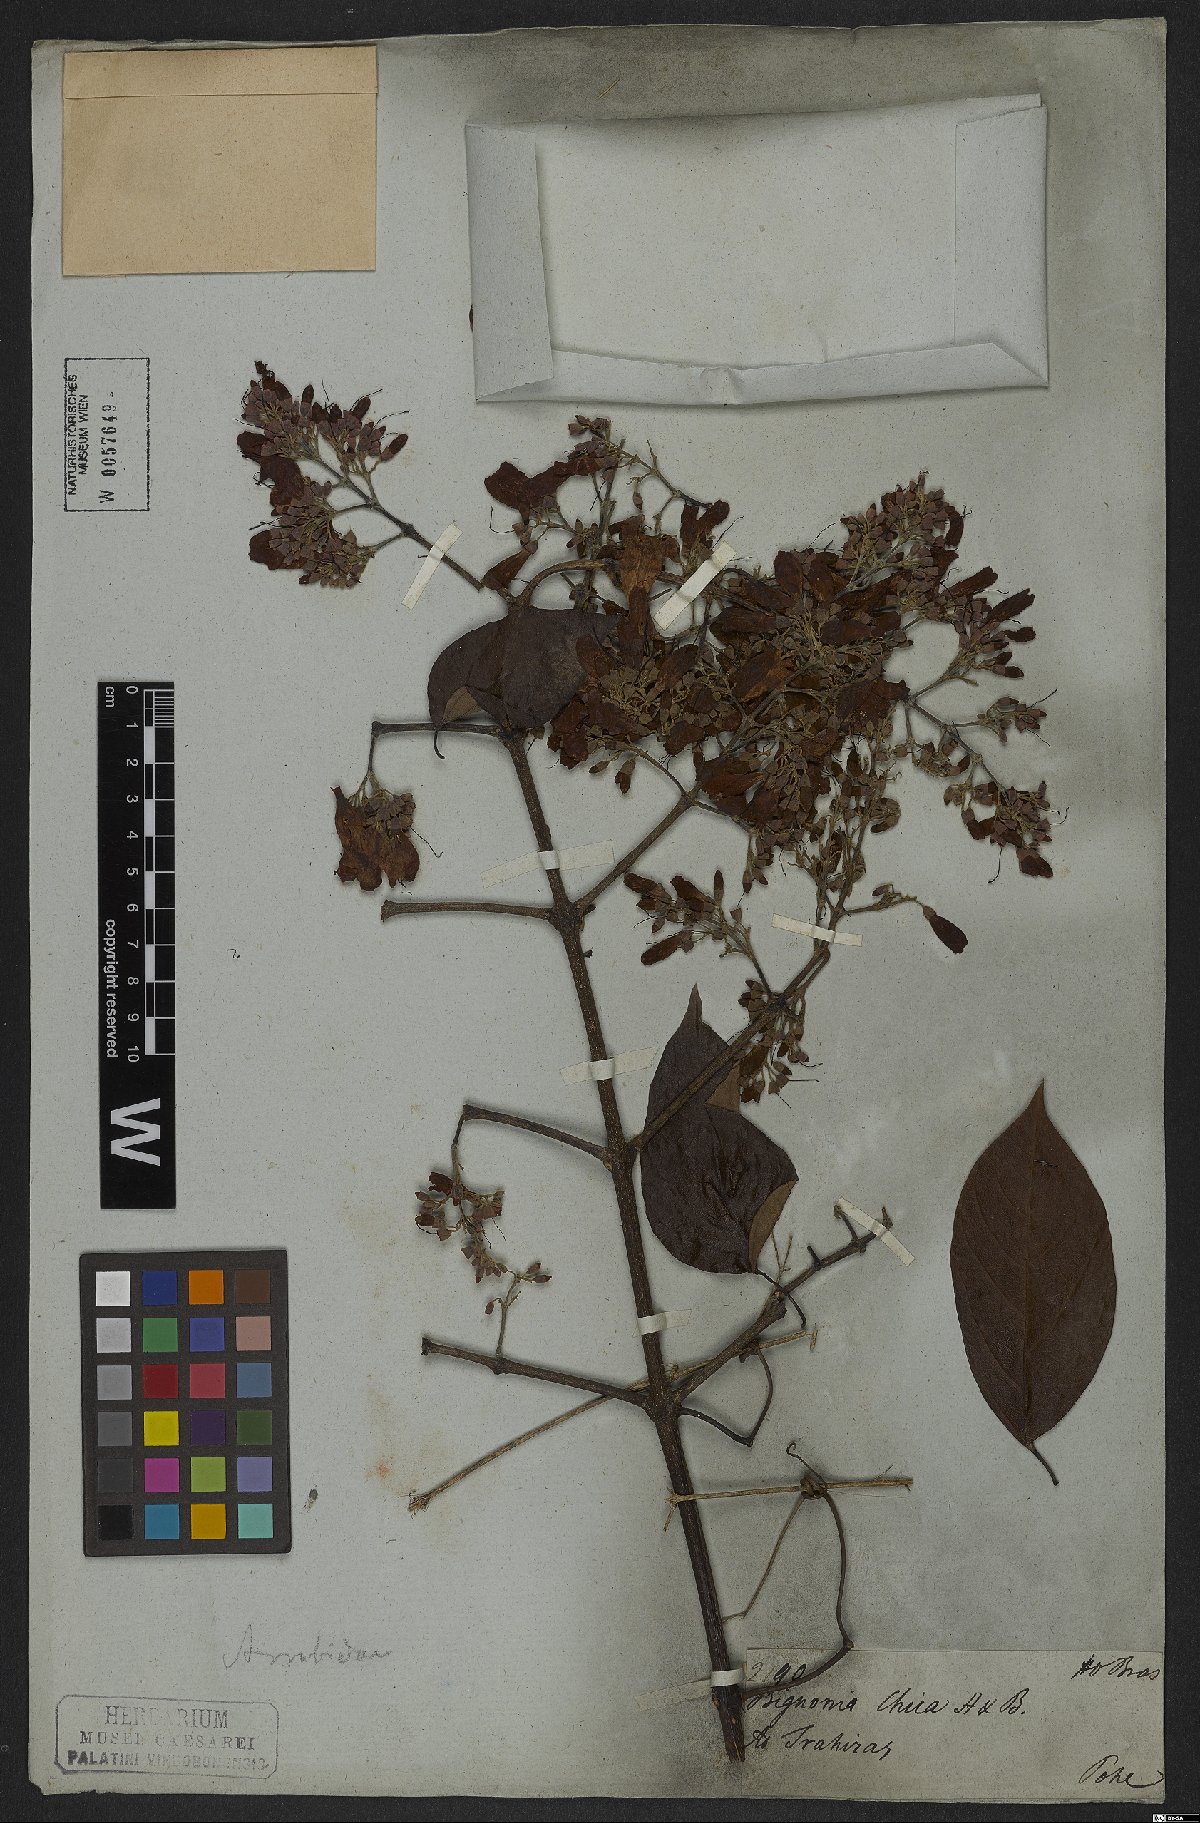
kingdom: Plantae
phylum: Tracheophyta
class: Magnoliopsida
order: Lamiales
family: Bignoniaceae
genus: Fridericia
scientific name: Fridericia chica
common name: Cricketvine
